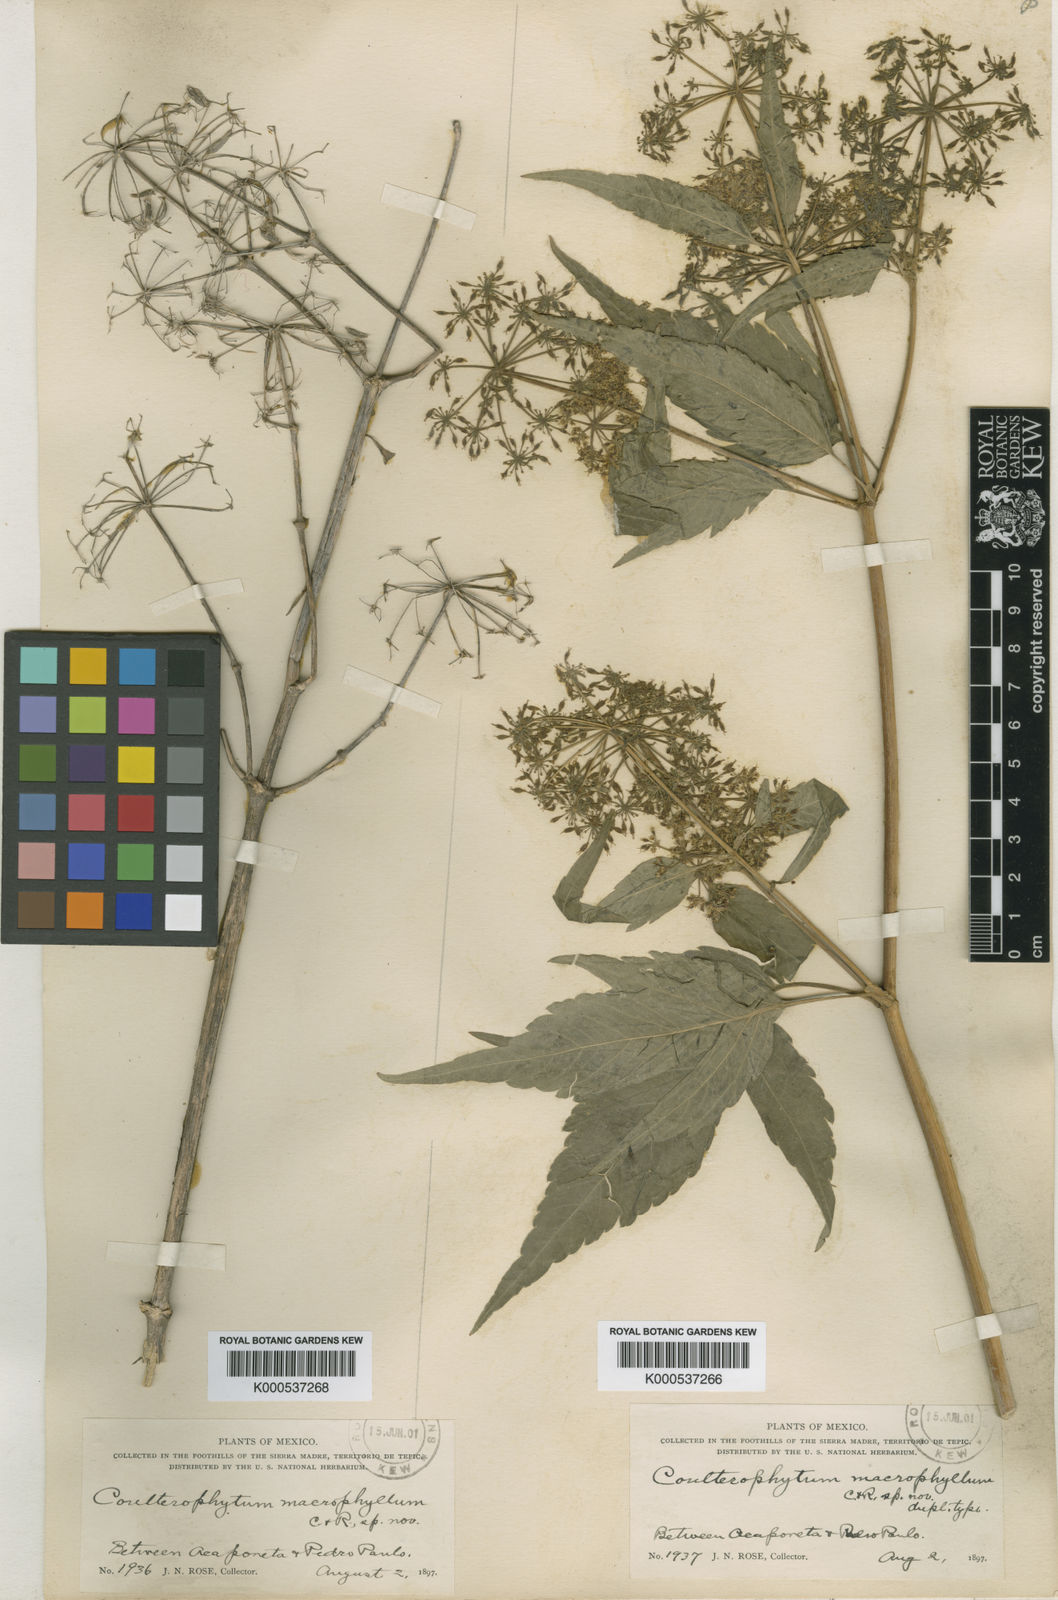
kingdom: Plantae
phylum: Tracheophyta
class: Magnoliopsida
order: Apiales
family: Apiaceae
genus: Coulterophytum
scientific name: Coulterophytum macrophyllum
